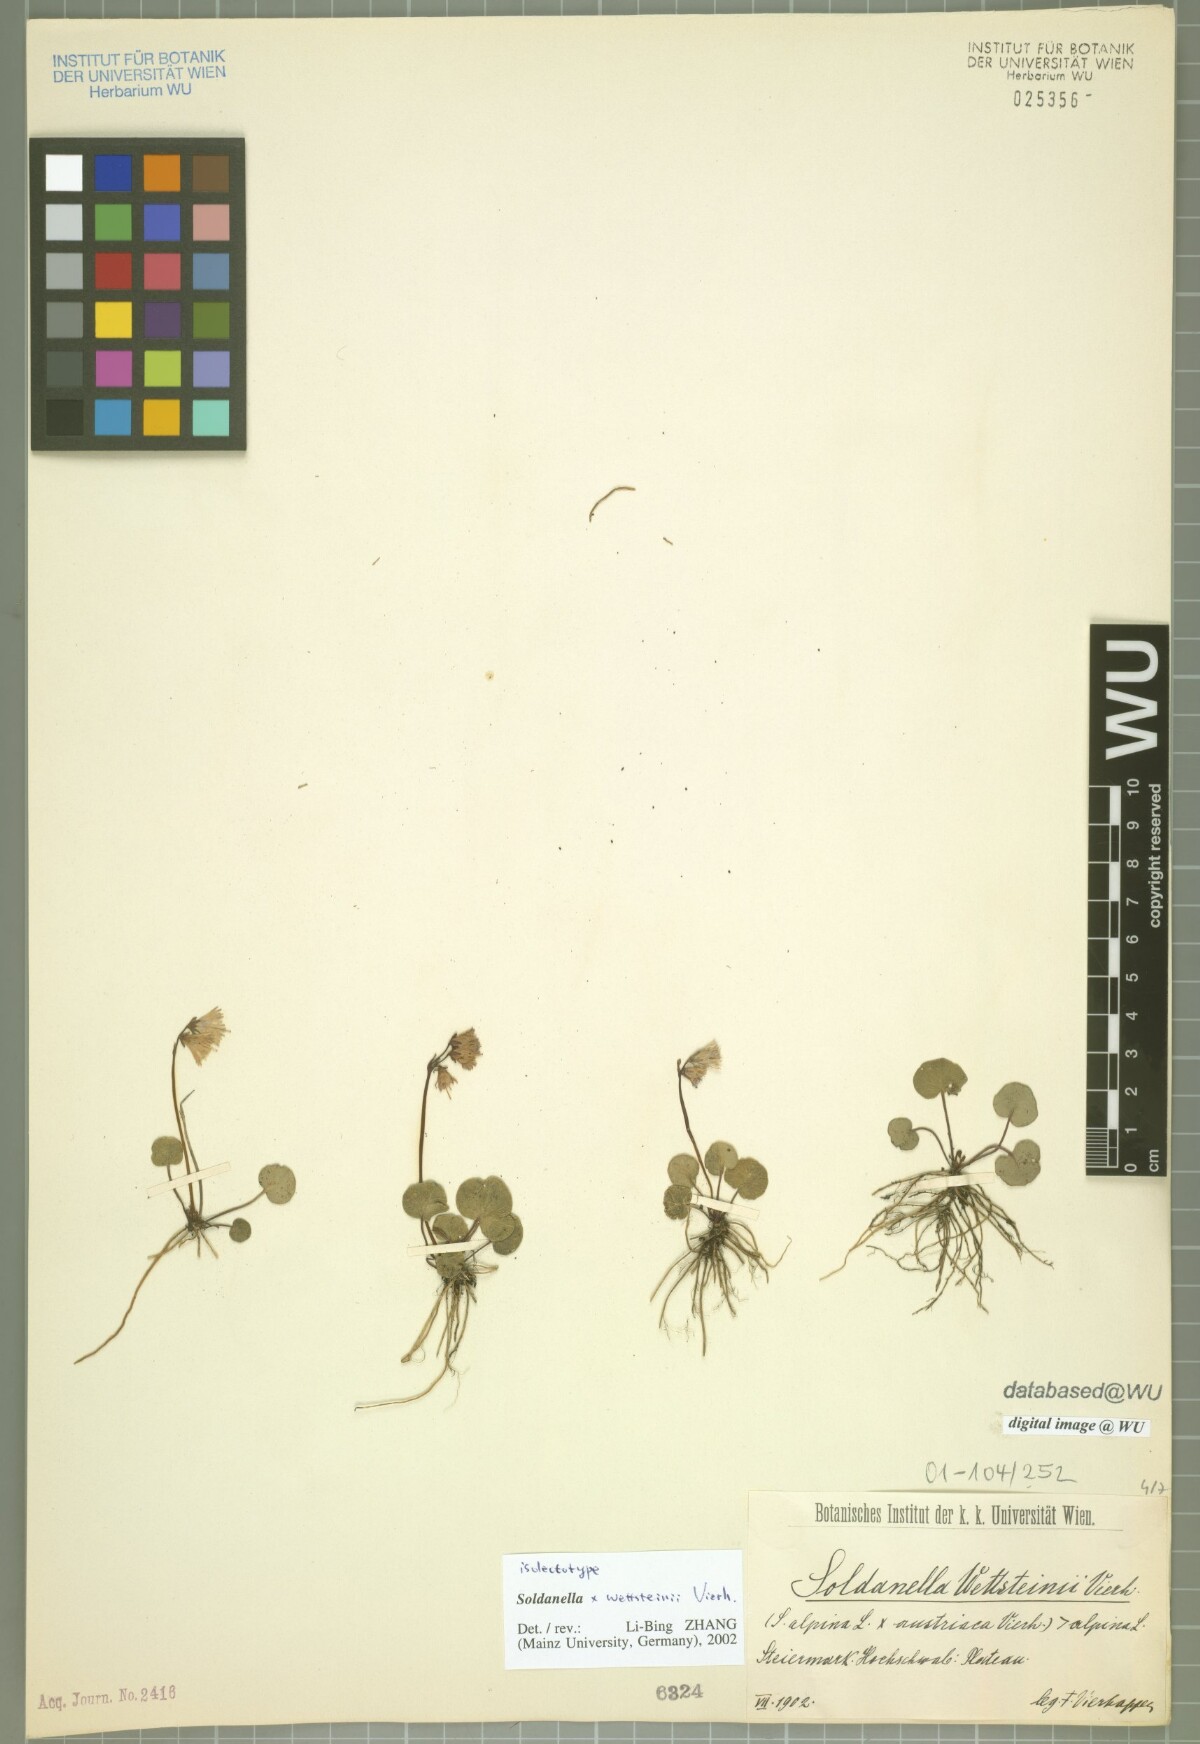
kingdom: Plantae
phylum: Tracheophyta
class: Magnoliopsida
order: Ericales
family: Primulaceae
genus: Soldanella
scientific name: Soldanella wettsteinii
